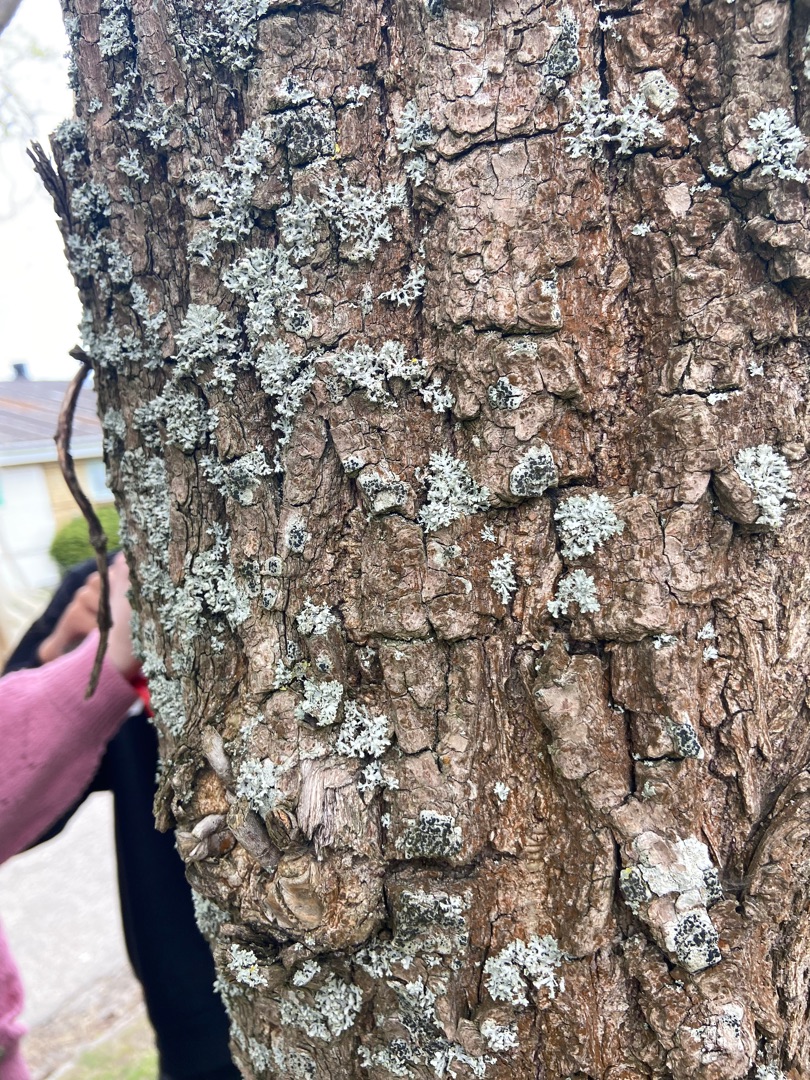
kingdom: Fungi
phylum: Ascomycota
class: Lecanoromycetes
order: Caliciales
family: Physciaceae
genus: Physcia
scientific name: Physcia adscendens
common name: Hætte-rosetlav
